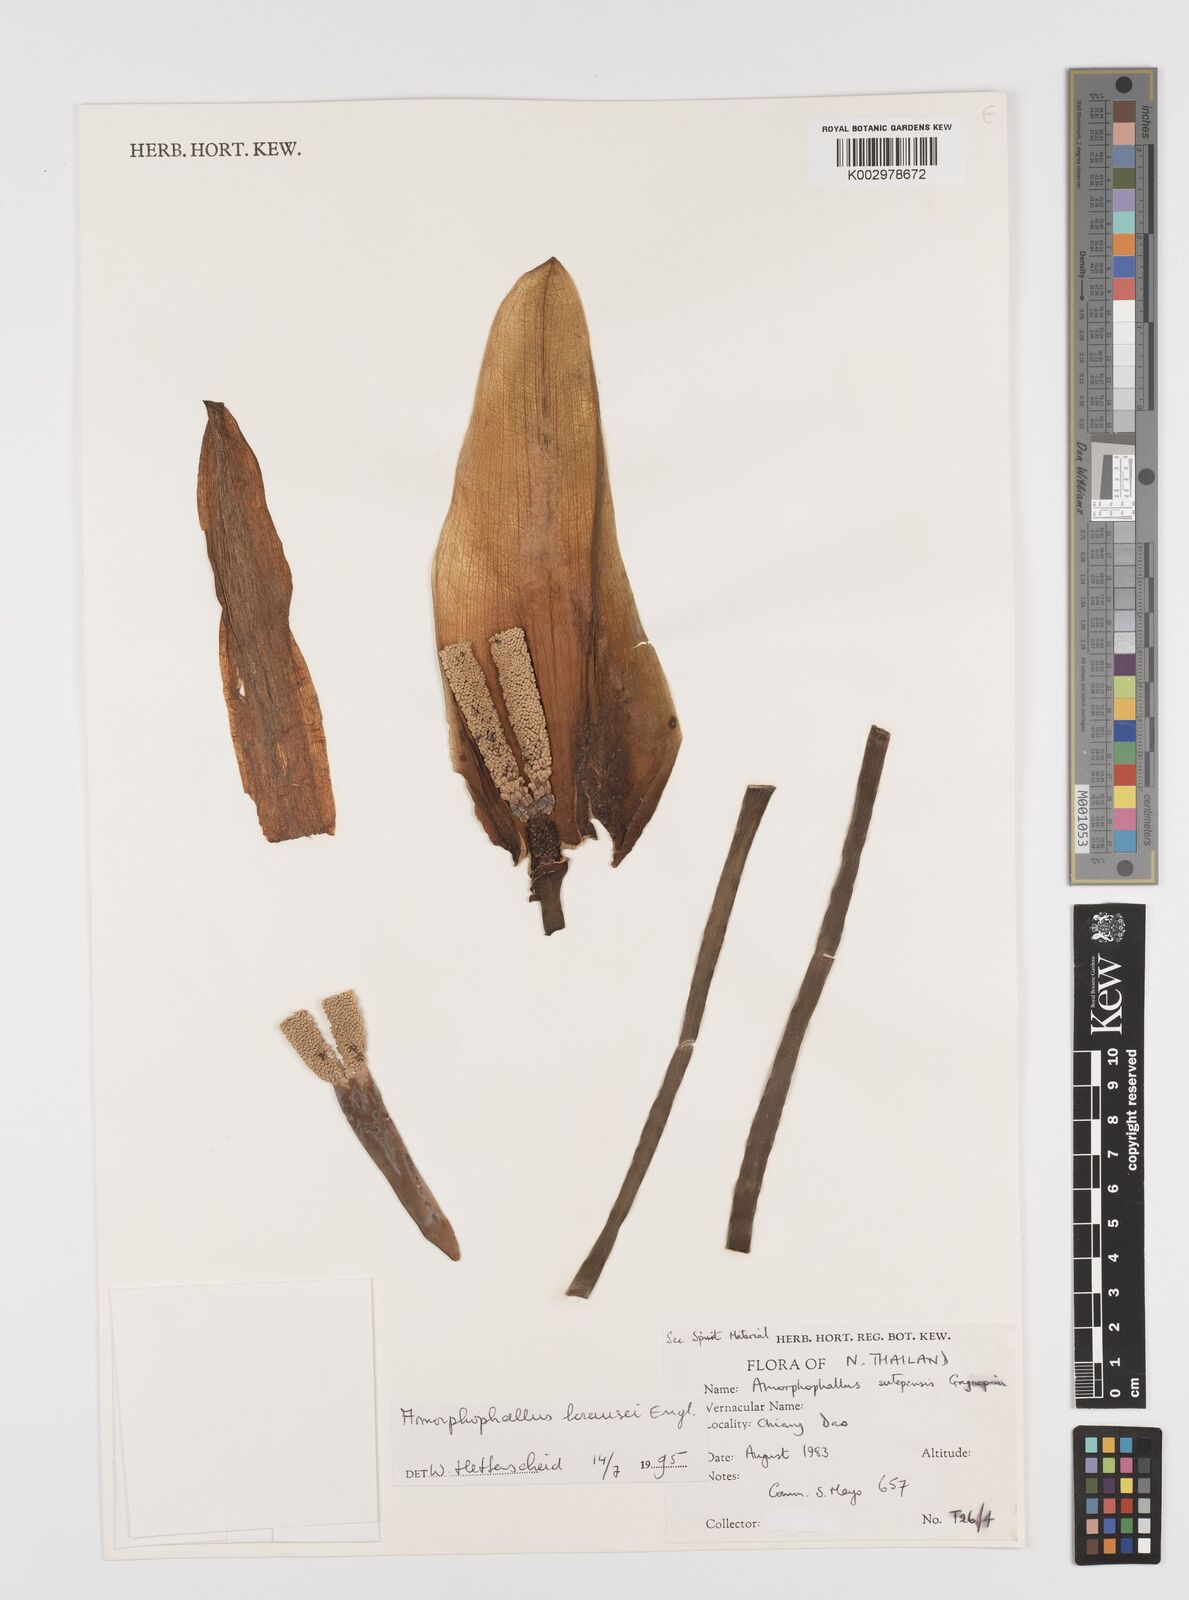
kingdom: Plantae
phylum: Tracheophyta
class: Liliopsida
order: Alismatales
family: Araceae
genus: Amorphophallus
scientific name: Amorphophallus krausei
